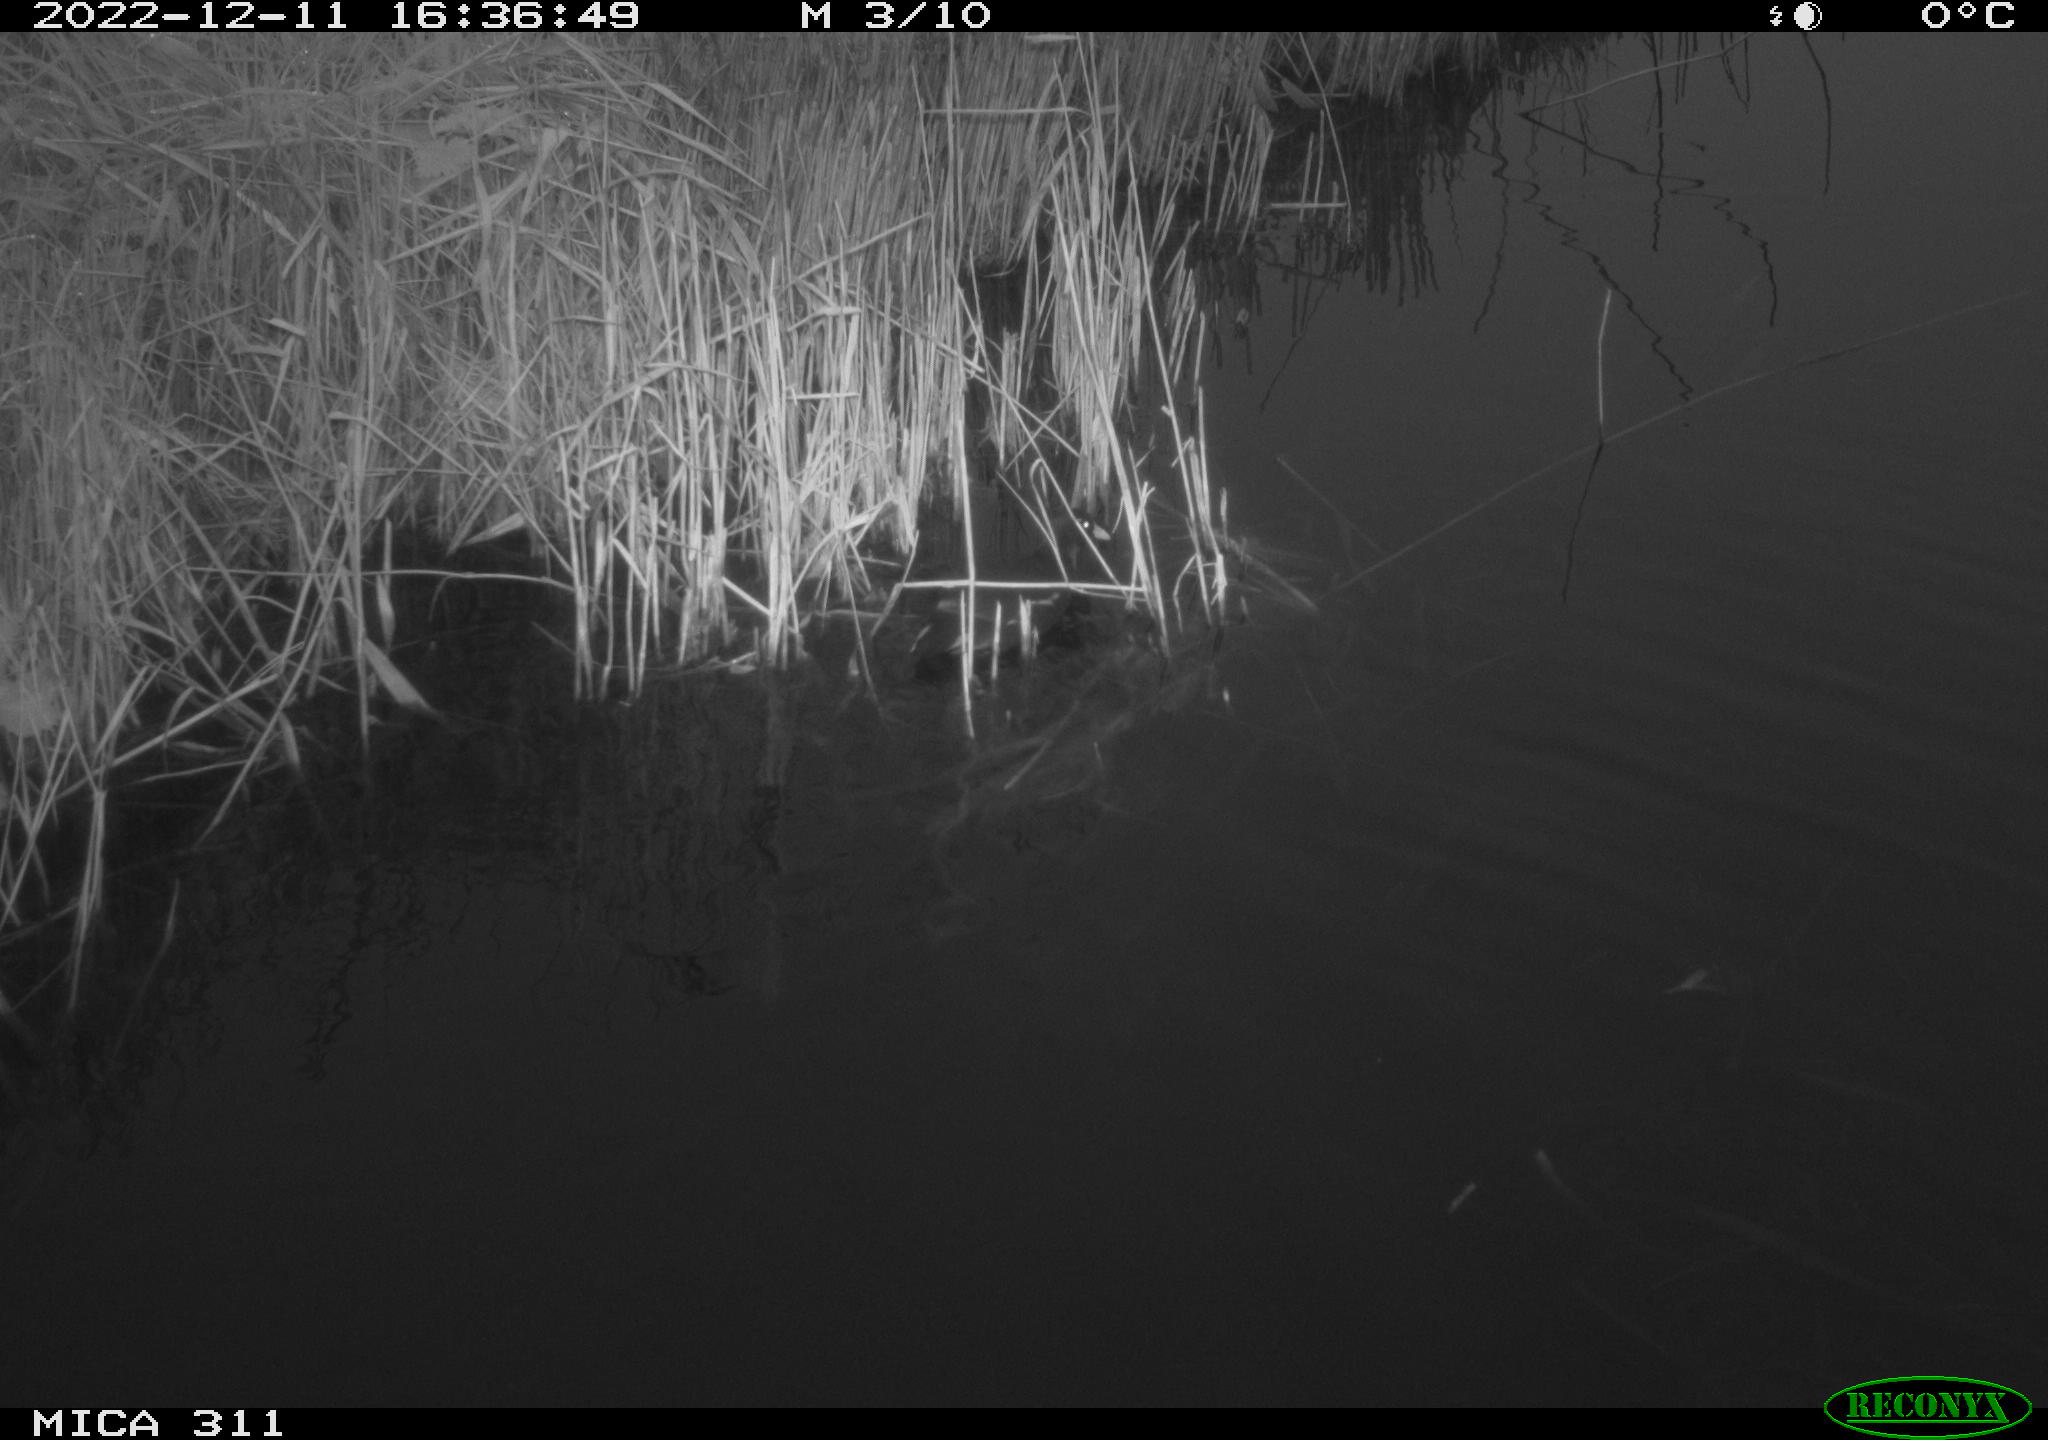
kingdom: Animalia
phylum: Chordata
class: Aves
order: Gruiformes
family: Rallidae
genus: Gallinula
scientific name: Gallinula chloropus
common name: Common moorhen
